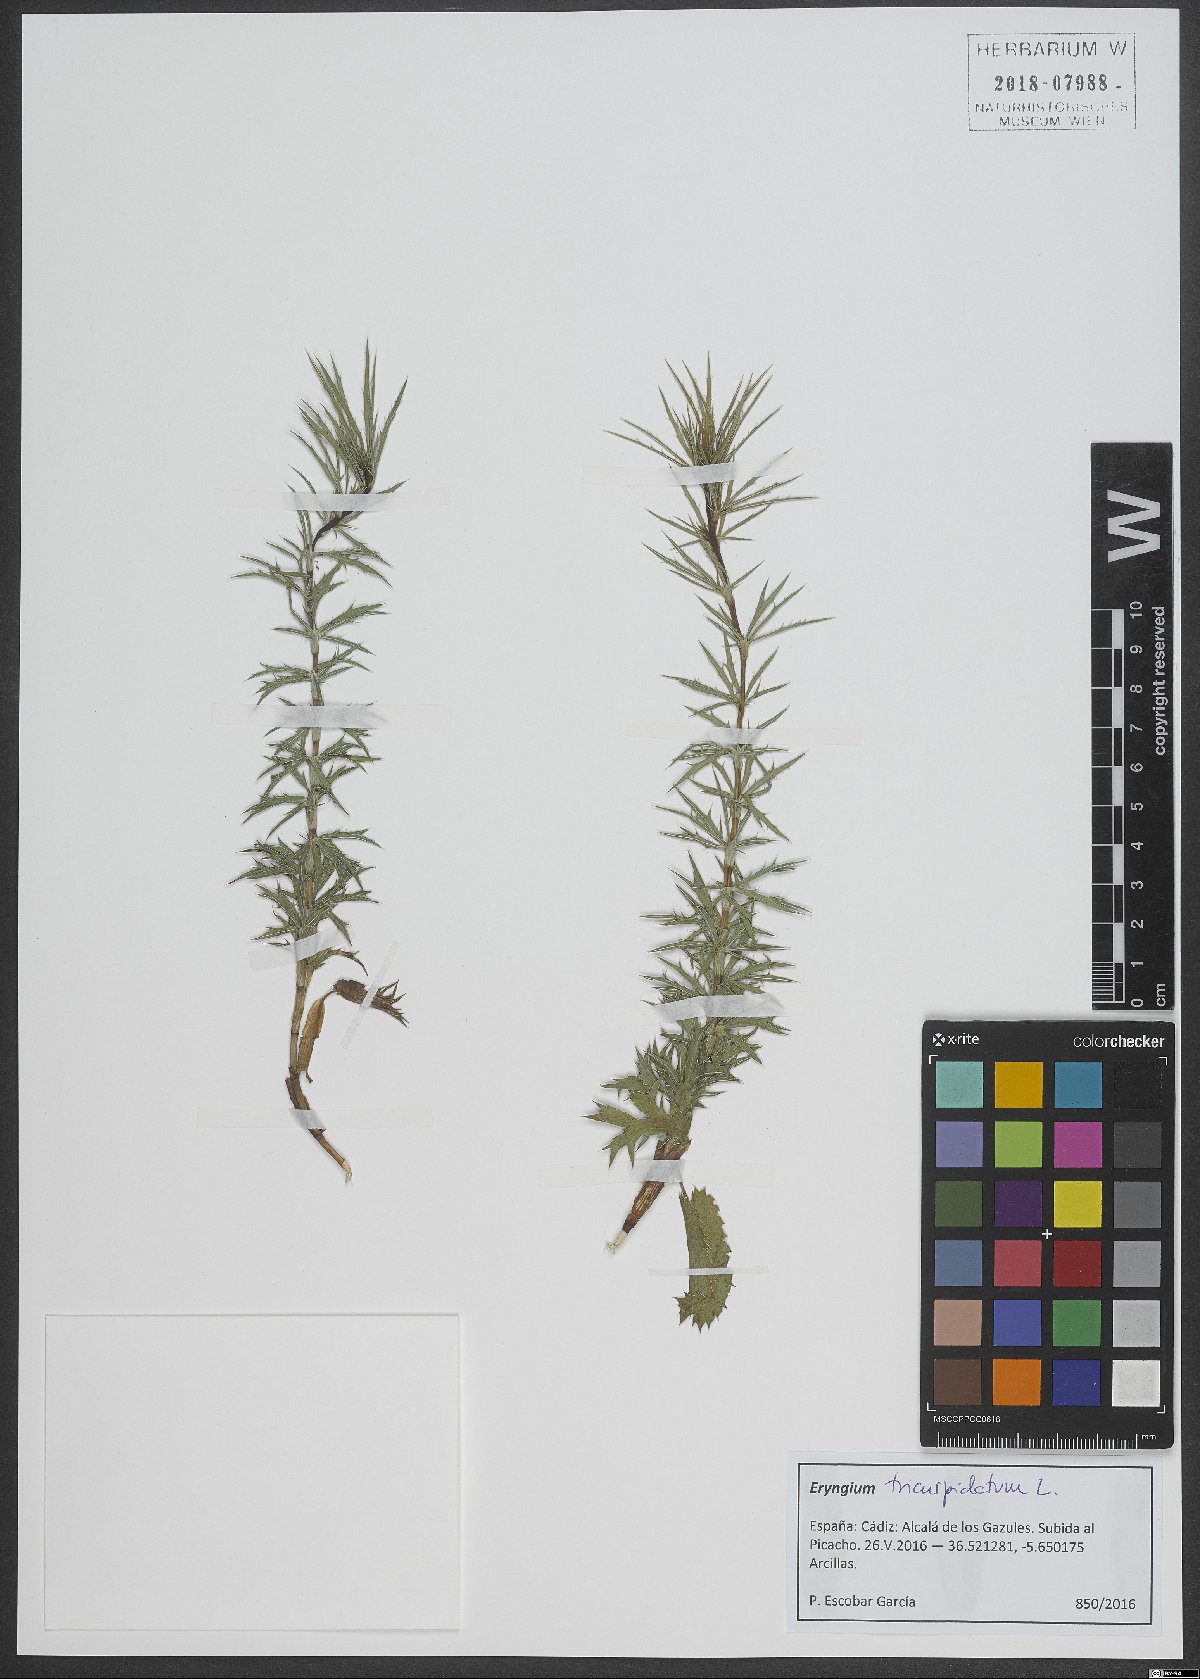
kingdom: Plantae
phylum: Tracheophyta
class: Magnoliopsida
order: Apiales
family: Apiaceae
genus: Eryngium
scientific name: Eryngium tricuspidatum
